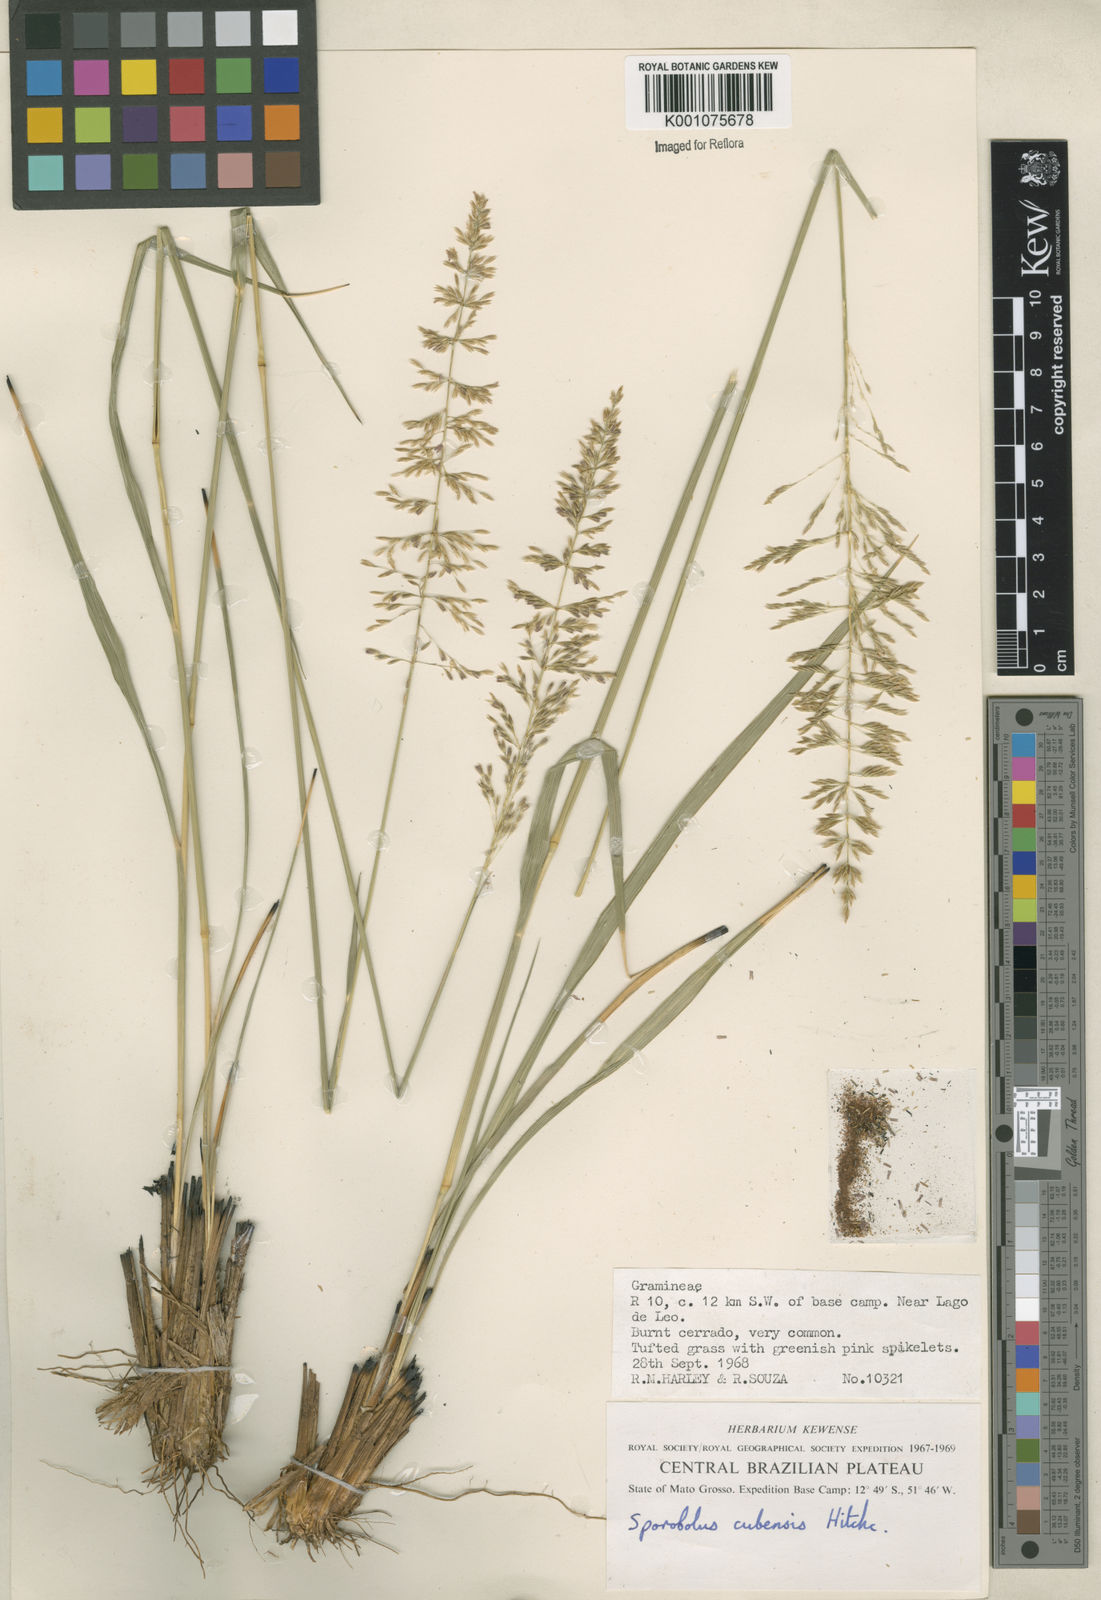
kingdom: Plantae
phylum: Tracheophyta
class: Liliopsida
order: Poales
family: Poaceae
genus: Sporobolus
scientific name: Sporobolus cubensis
